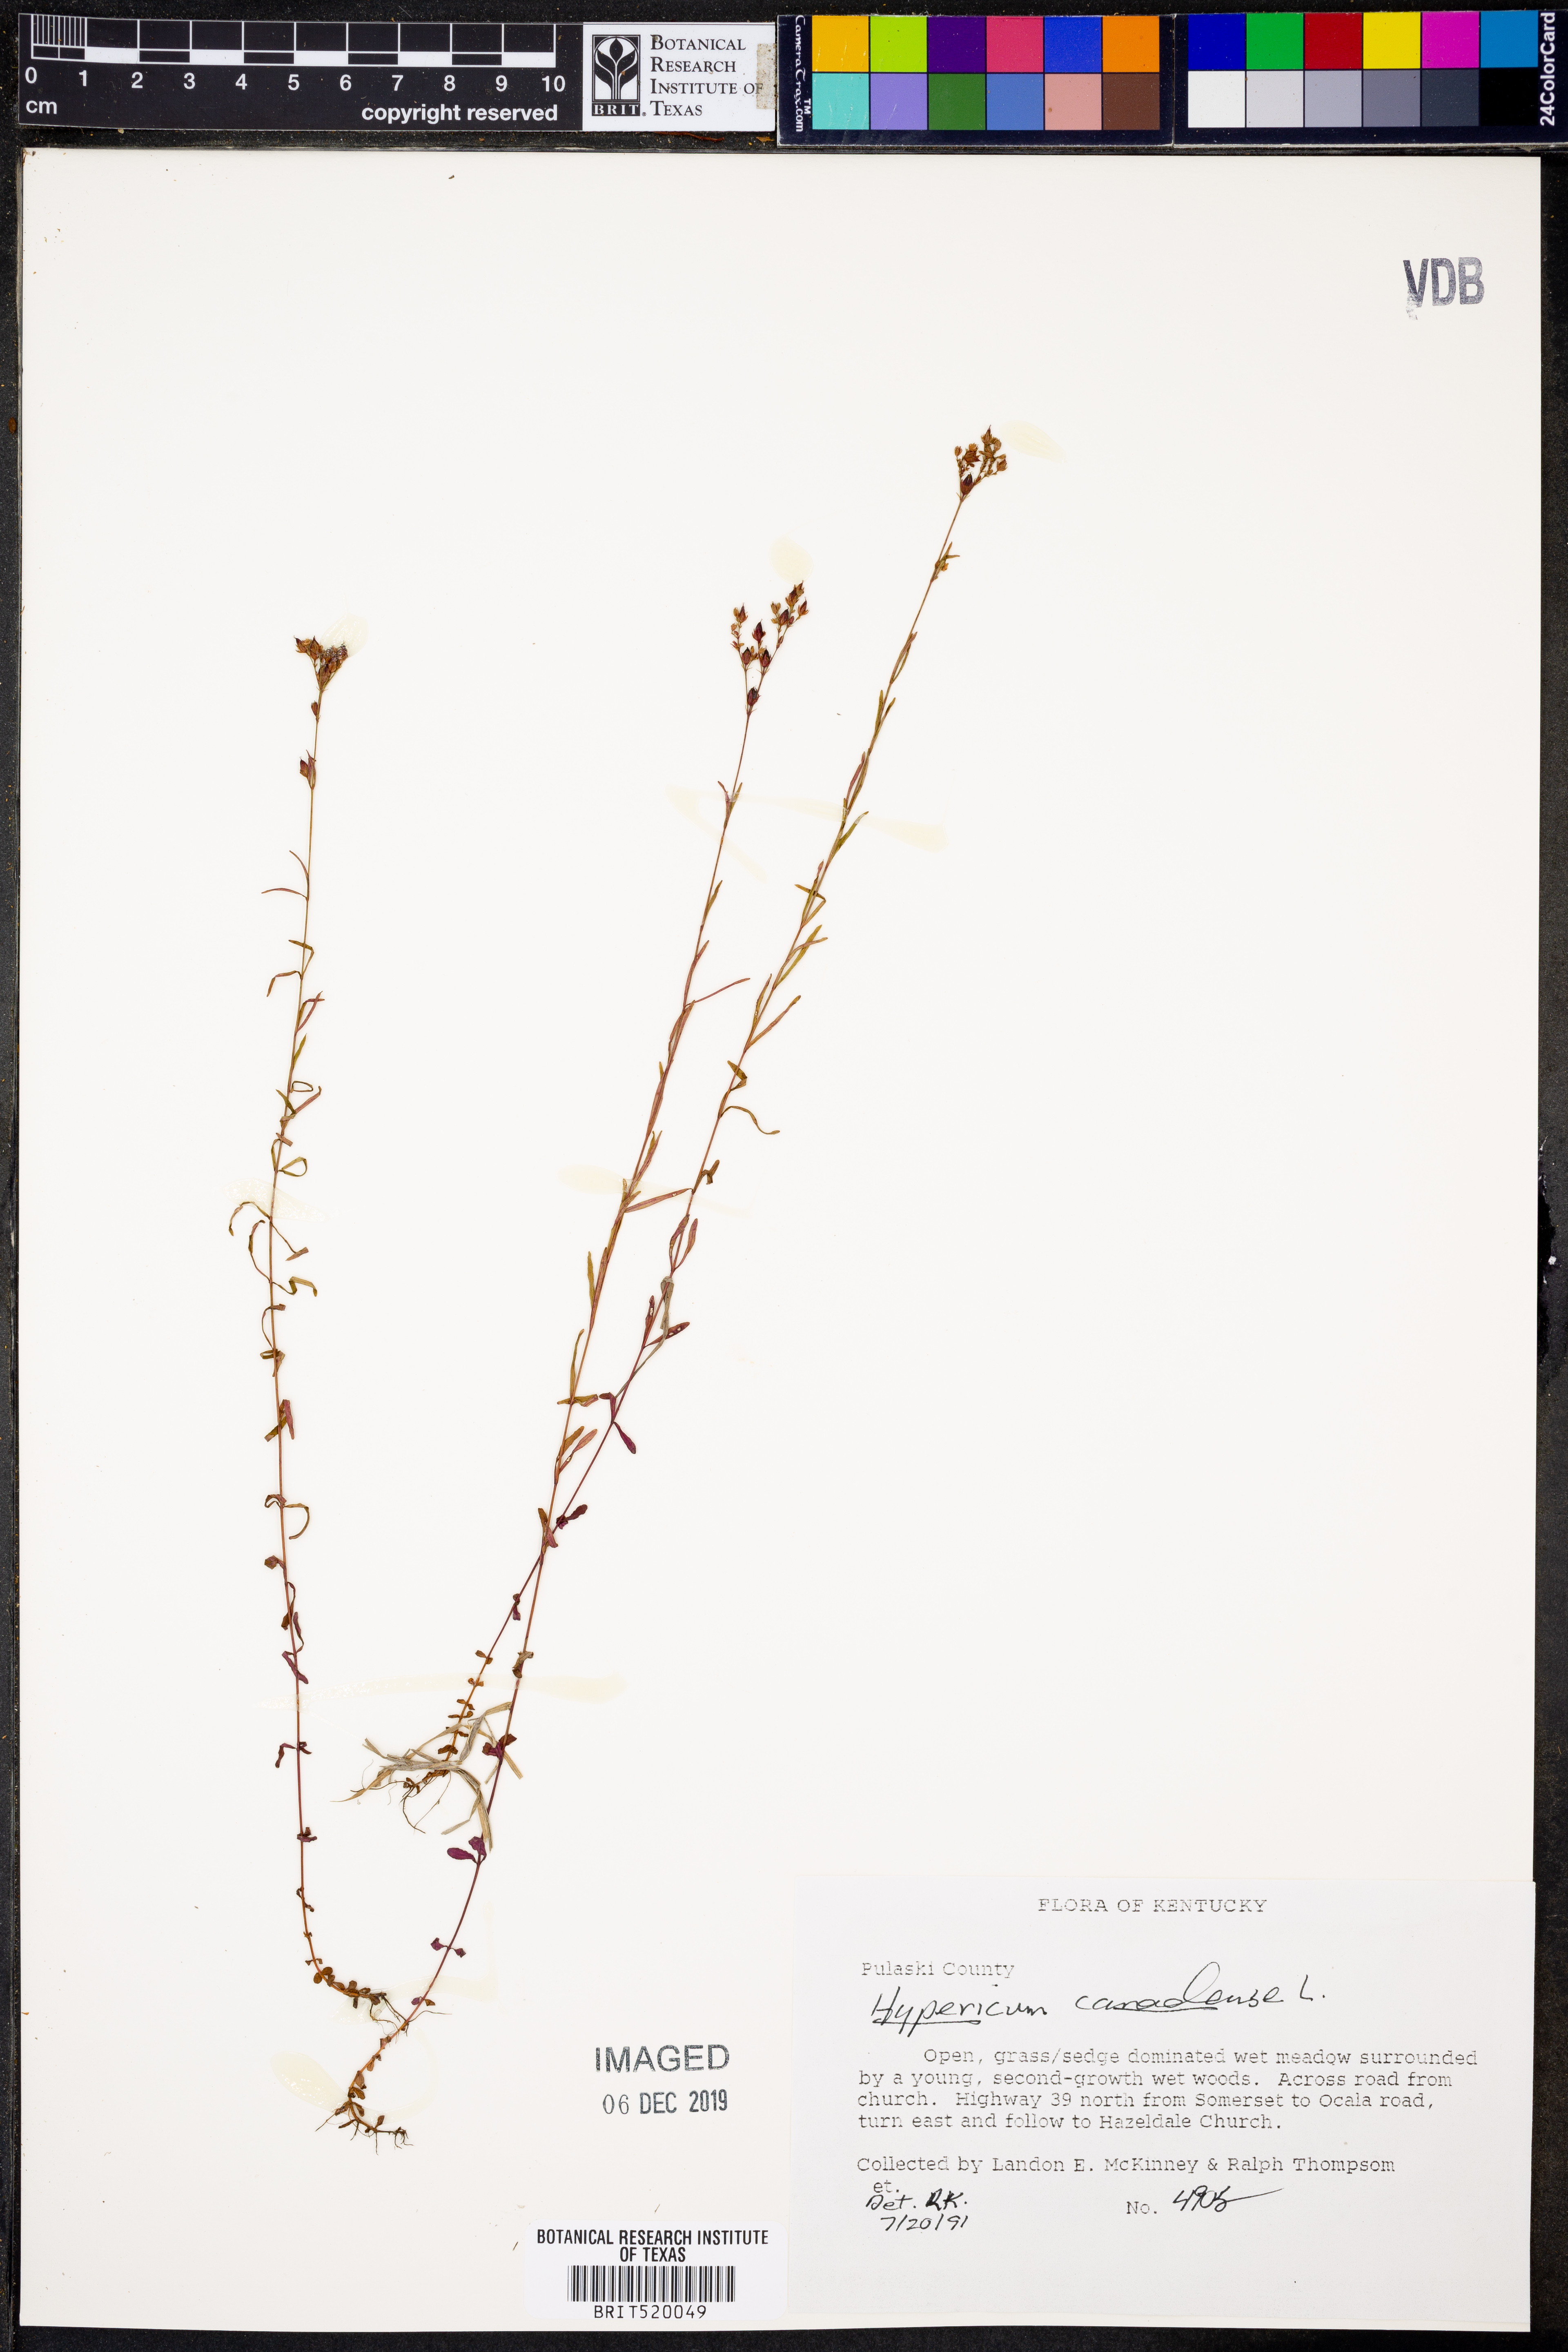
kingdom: Plantae
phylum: Tracheophyta
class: Magnoliopsida
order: Malpighiales
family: Hypericaceae
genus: Hypericum
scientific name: Hypericum canadense
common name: Irish st. john's-wort
